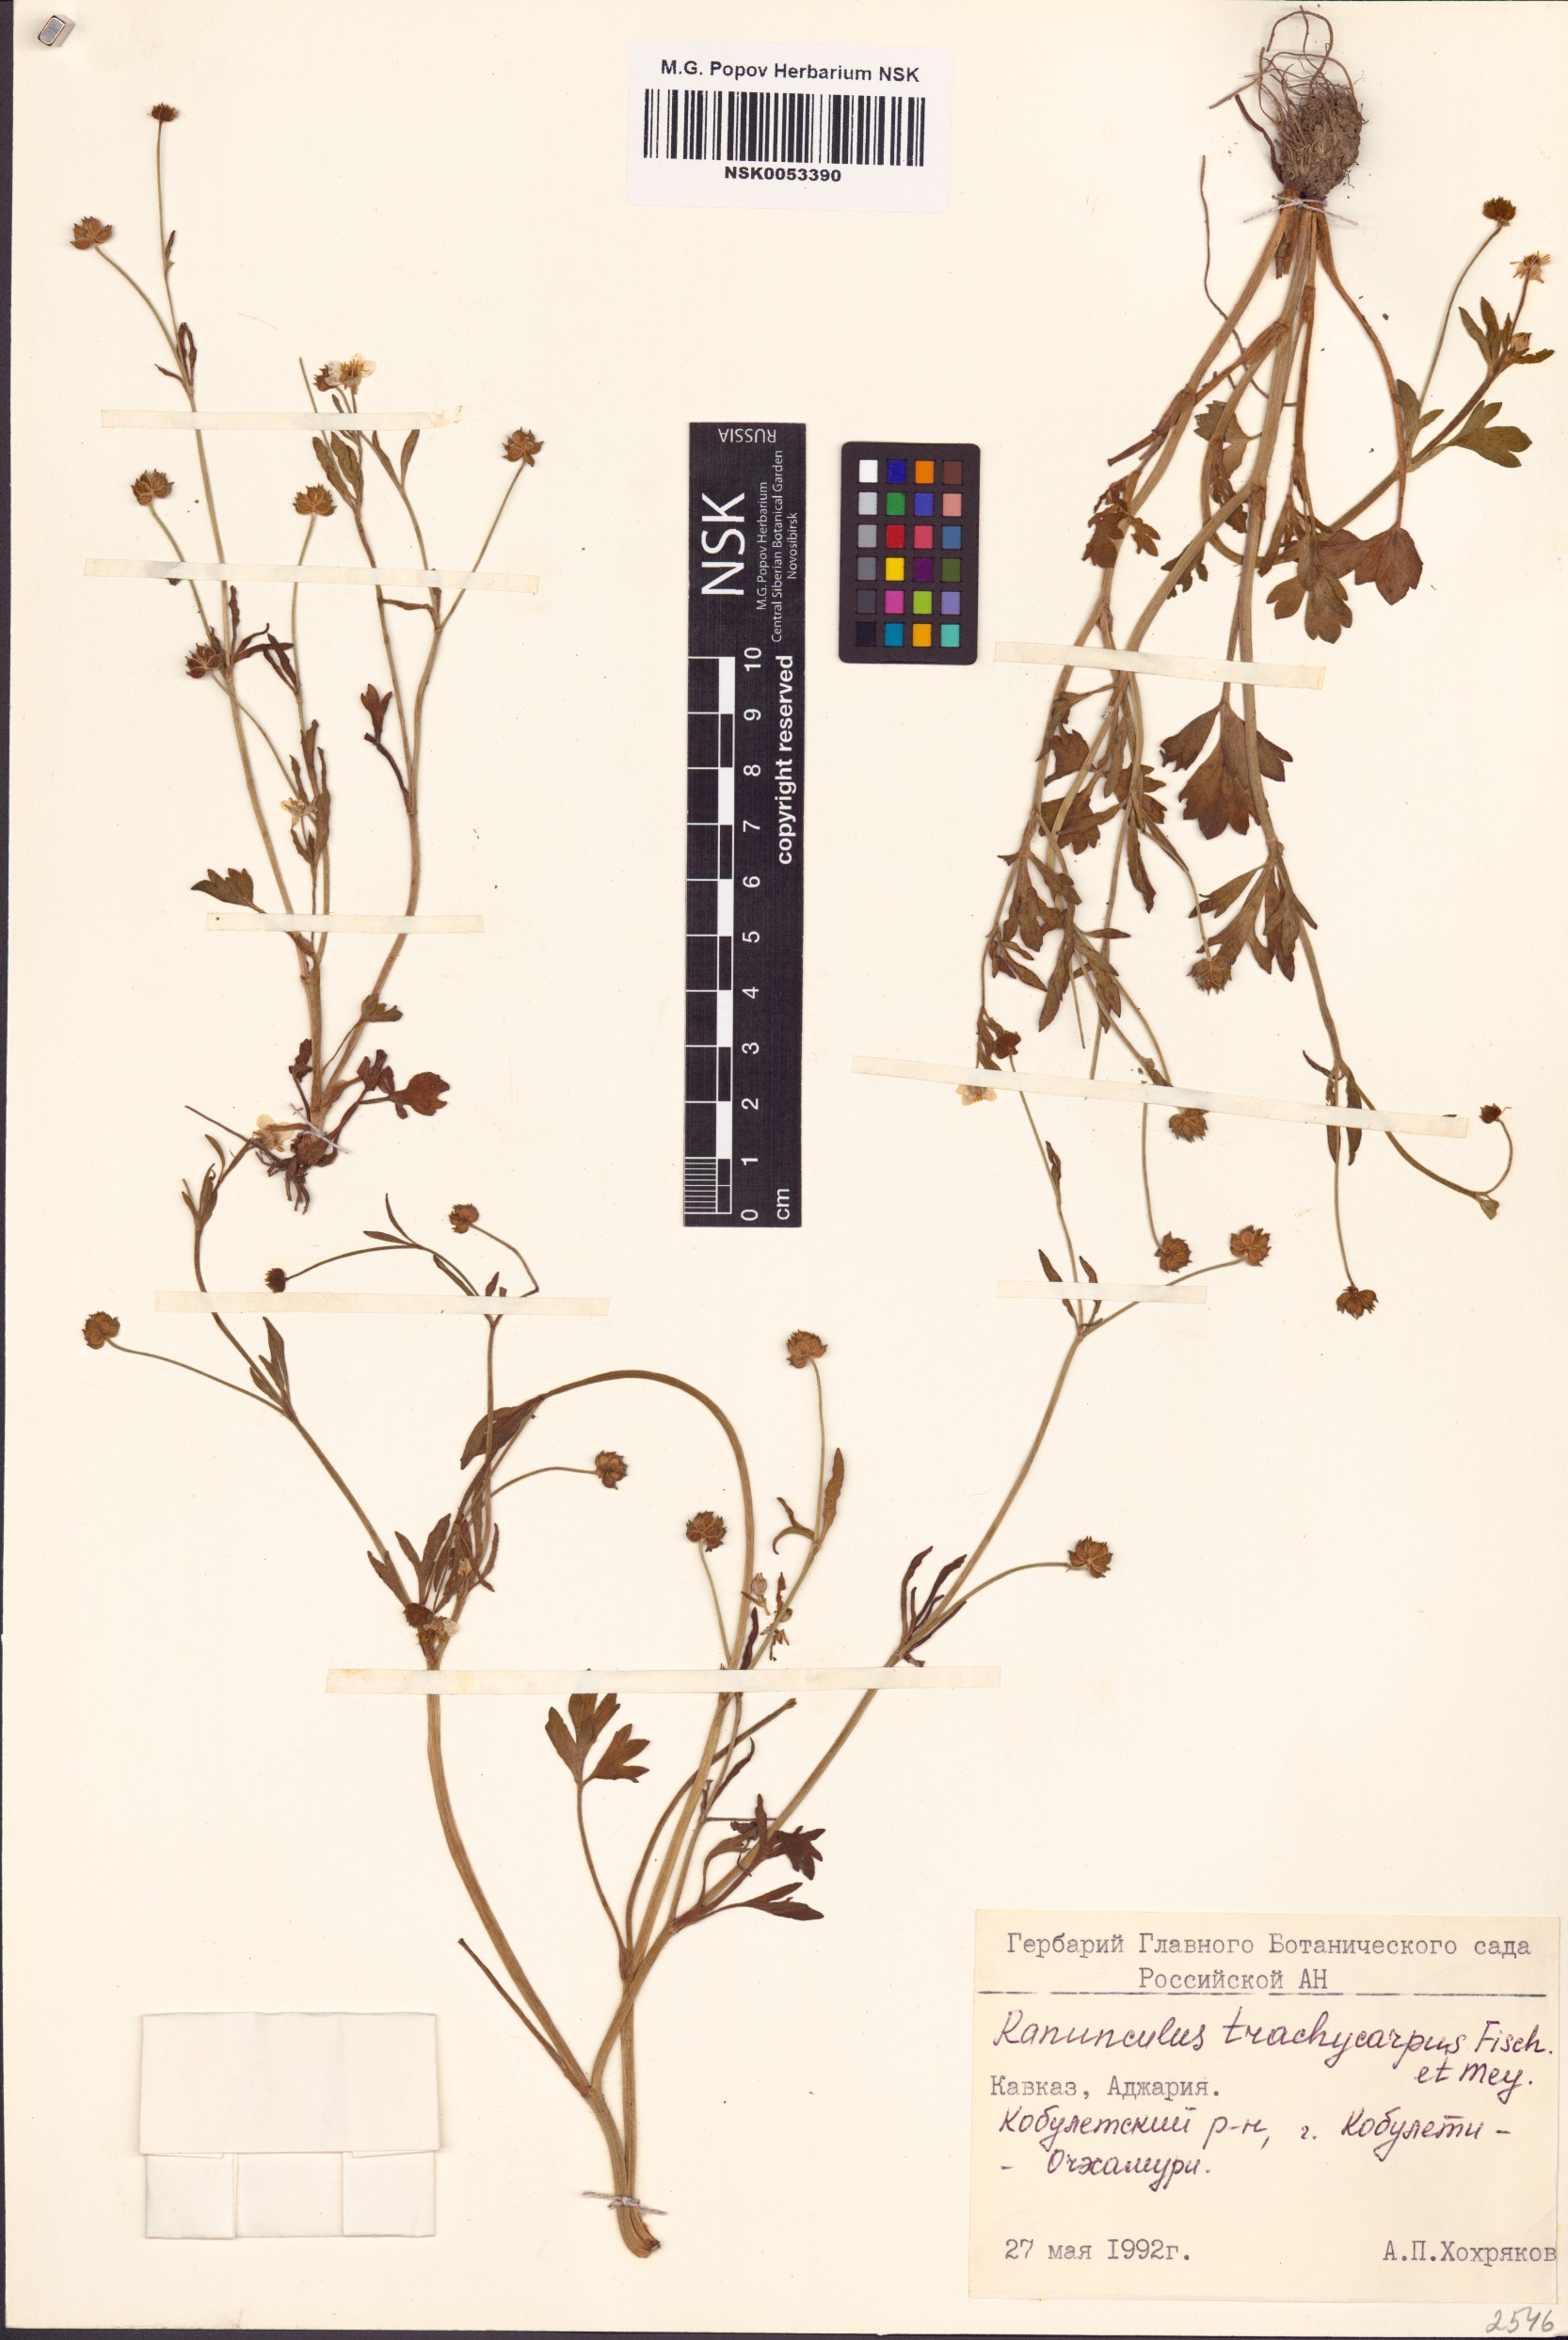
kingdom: Plantae
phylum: Tracheophyta
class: Magnoliopsida
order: Ranunculales
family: Ranunculaceae
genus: Ranunculus
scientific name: Ranunculus marginatus
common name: St. martin's buttercup
